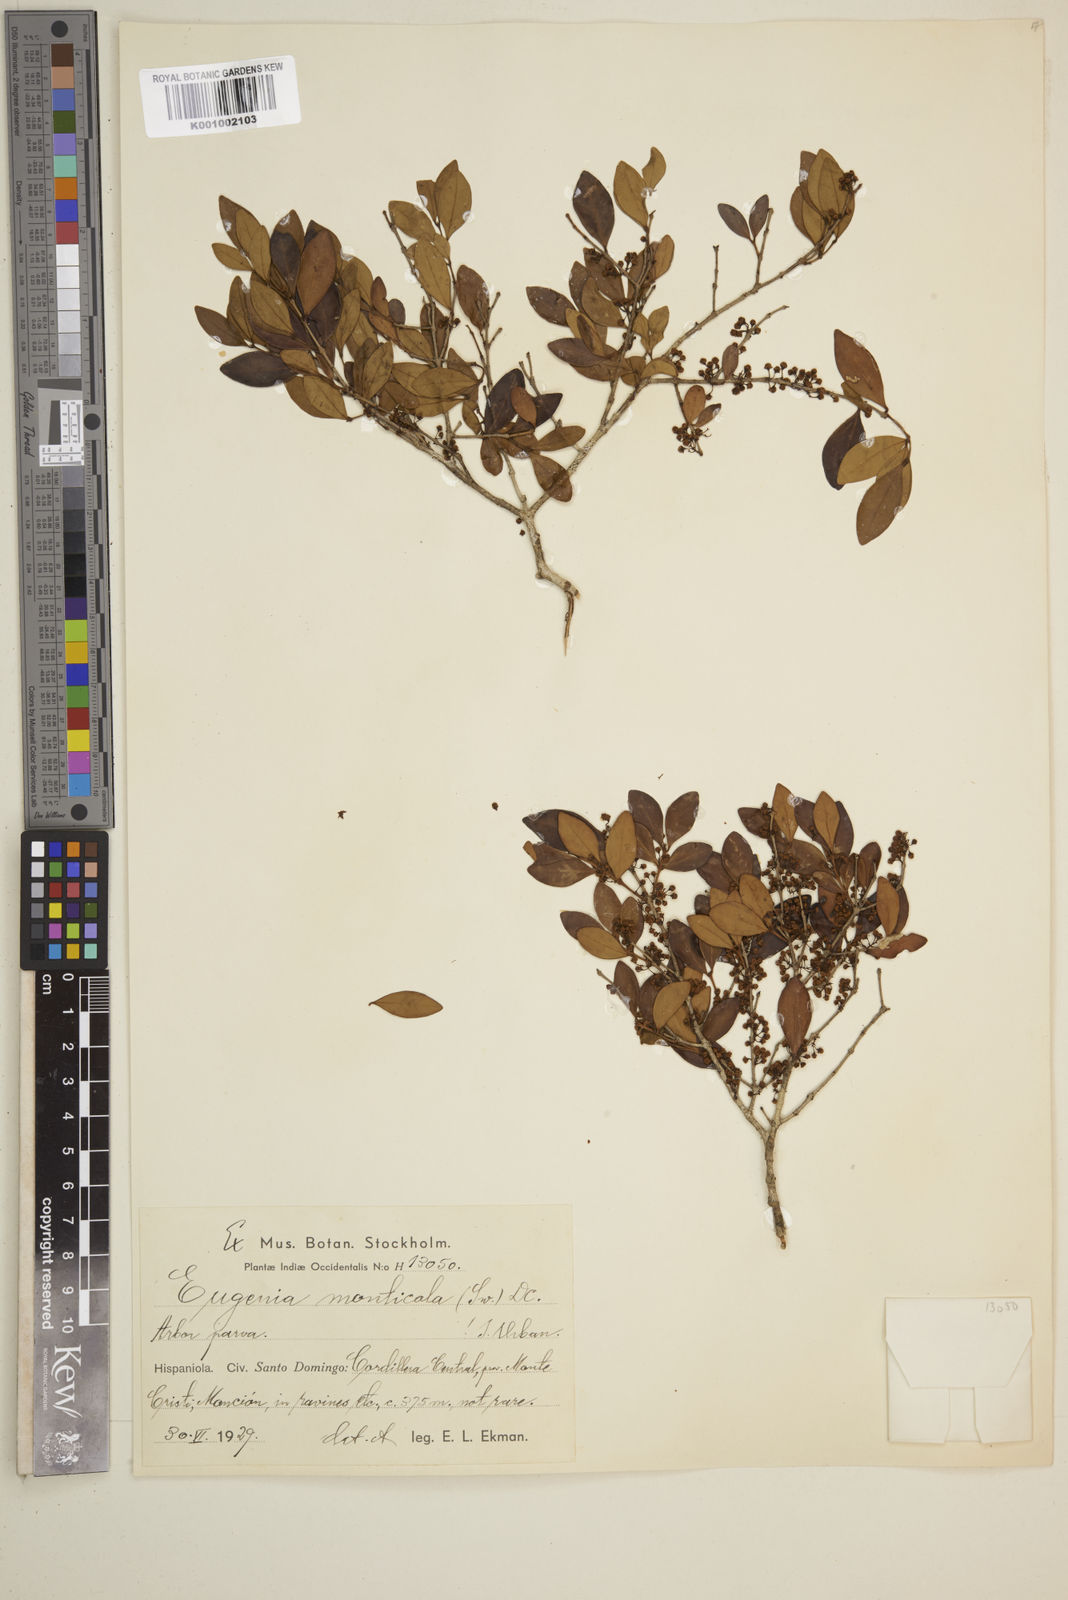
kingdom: Plantae
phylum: Tracheophyta
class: Magnoliopsida
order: Myrtales
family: Myrtaceae
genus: Eugenia
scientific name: Eugenia monticola
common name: Birds berry
